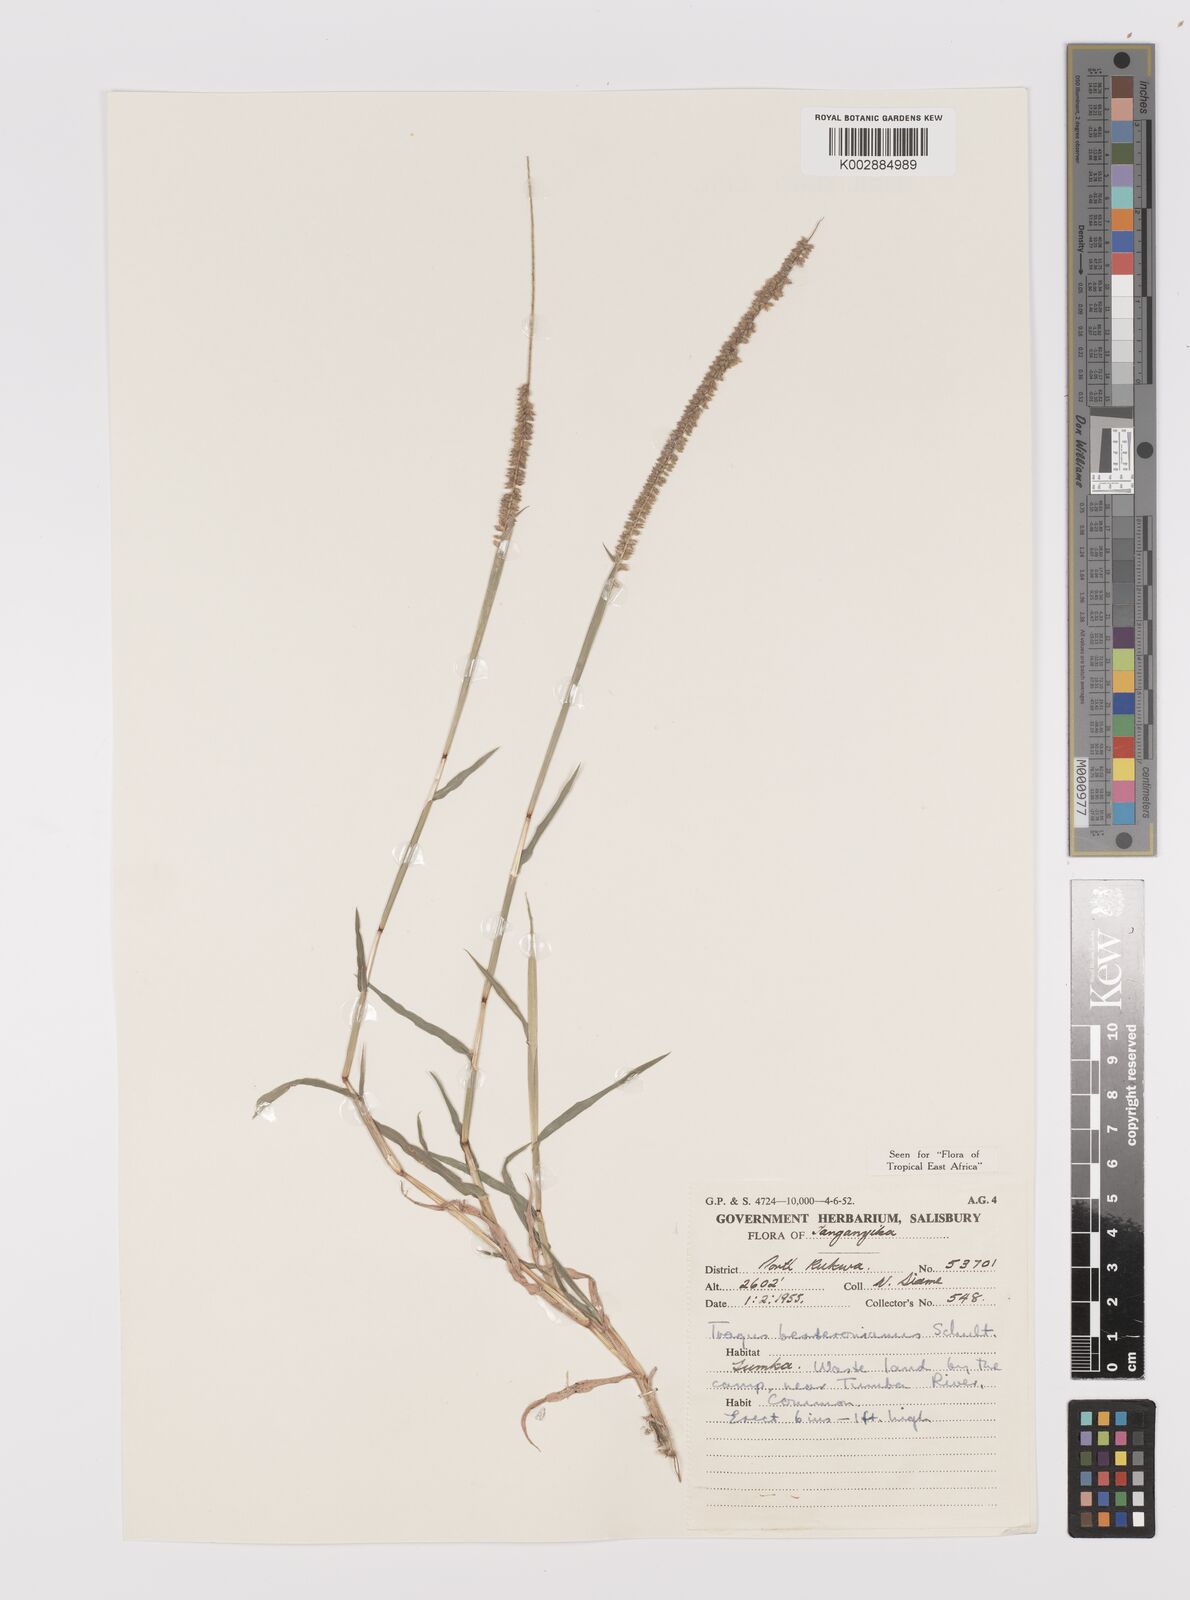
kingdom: Plantae
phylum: Tracheophyta
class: Liliopsida
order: Poales
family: Poaceae
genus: Tragus
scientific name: Tragus berteronianus
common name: African bur-grass
